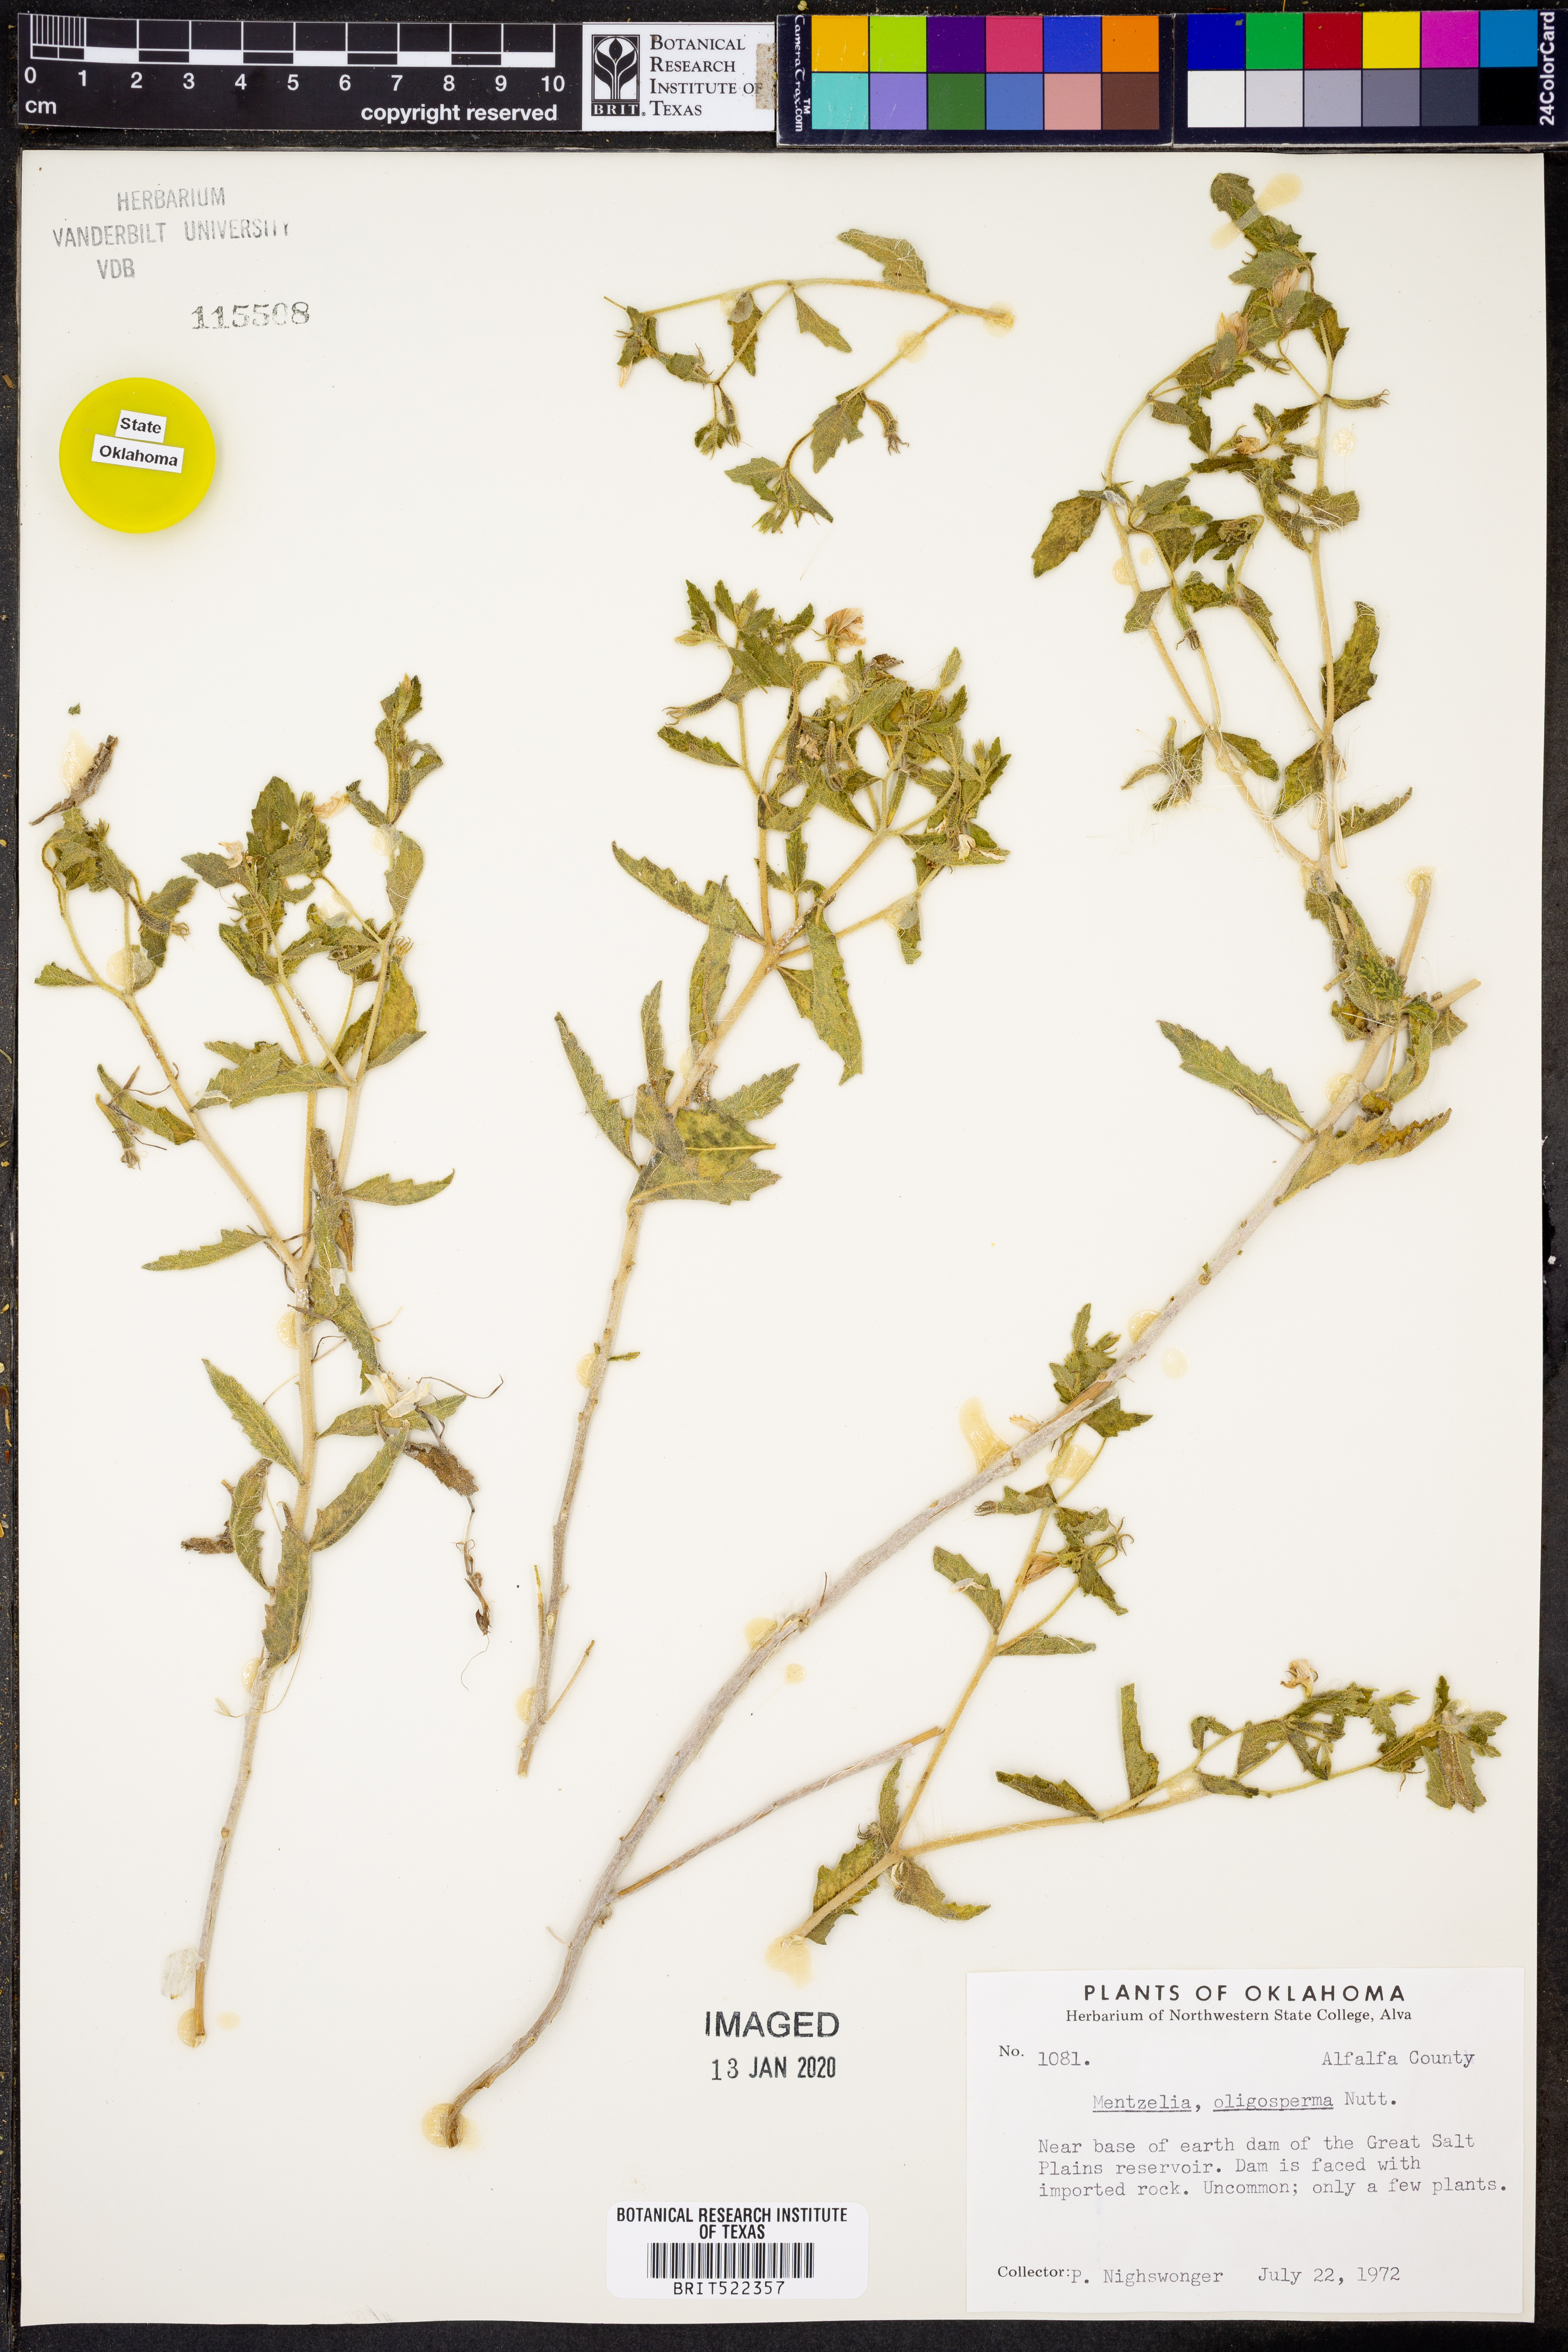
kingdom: Plantae
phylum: Tracheophyta
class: Magnoliopsida
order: Cornales
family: Loasaceae
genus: Mentzelia
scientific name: Mentzelia oligosperma
